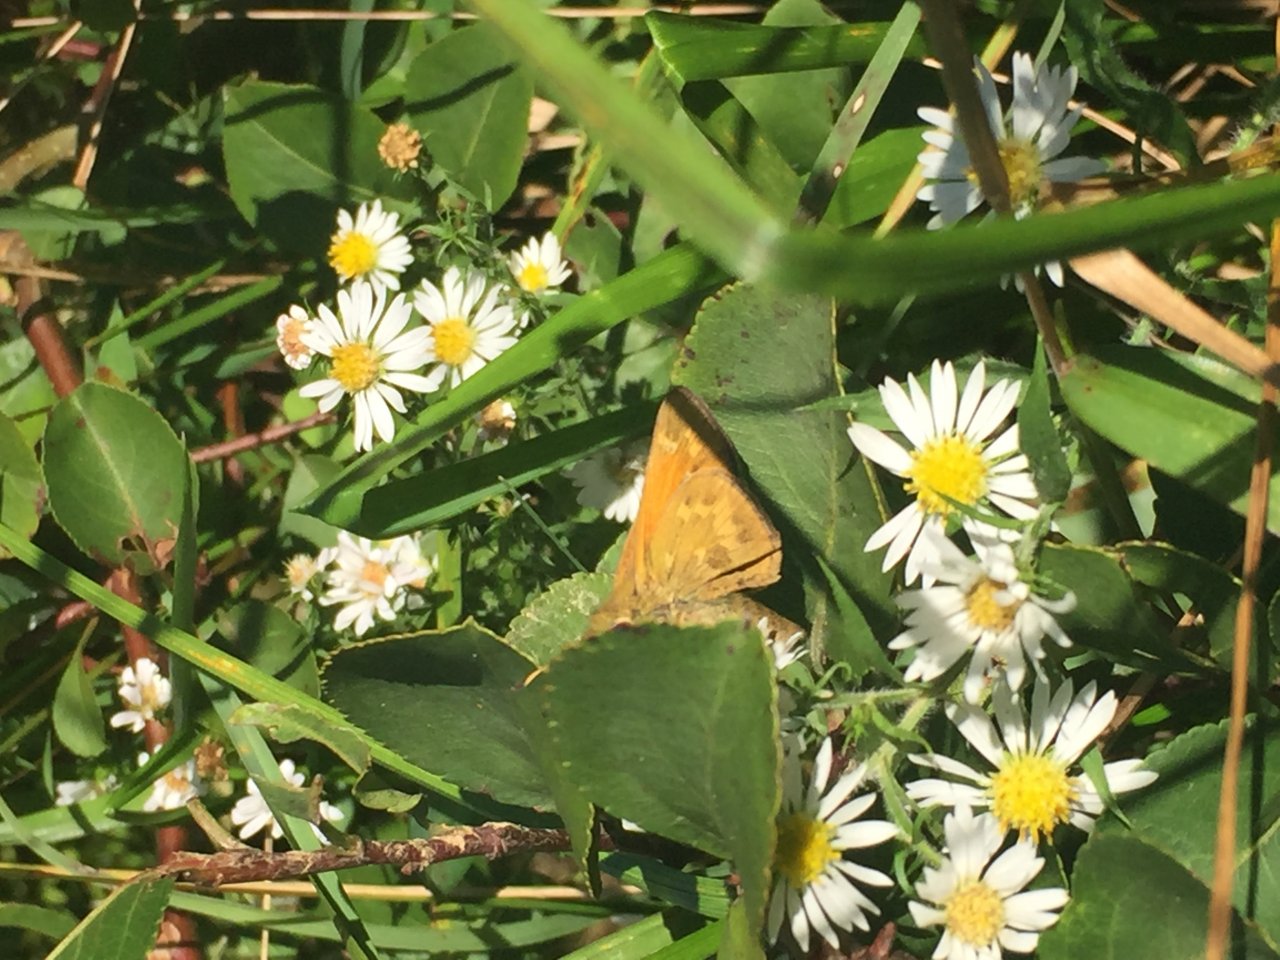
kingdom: Animalia
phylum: Arthropoda
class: Insecta
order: Lepidoptera
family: Hesperiidae
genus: Atalopedes
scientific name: Atalopedes campestris
